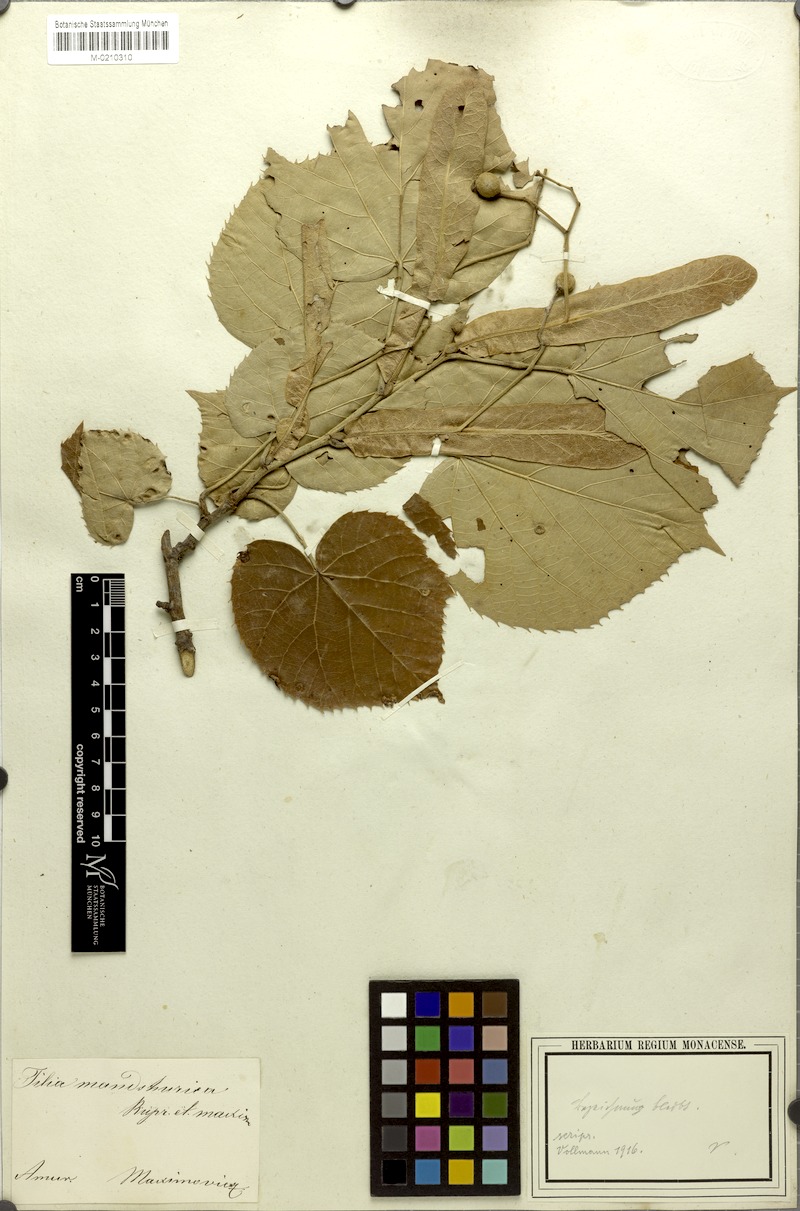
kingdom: Plantae
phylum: Tracheophyta
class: Magnoliopsida
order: Malvales
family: Malvaceae
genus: Tilia
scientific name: Tilia mandshurica
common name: Manchurian linden
